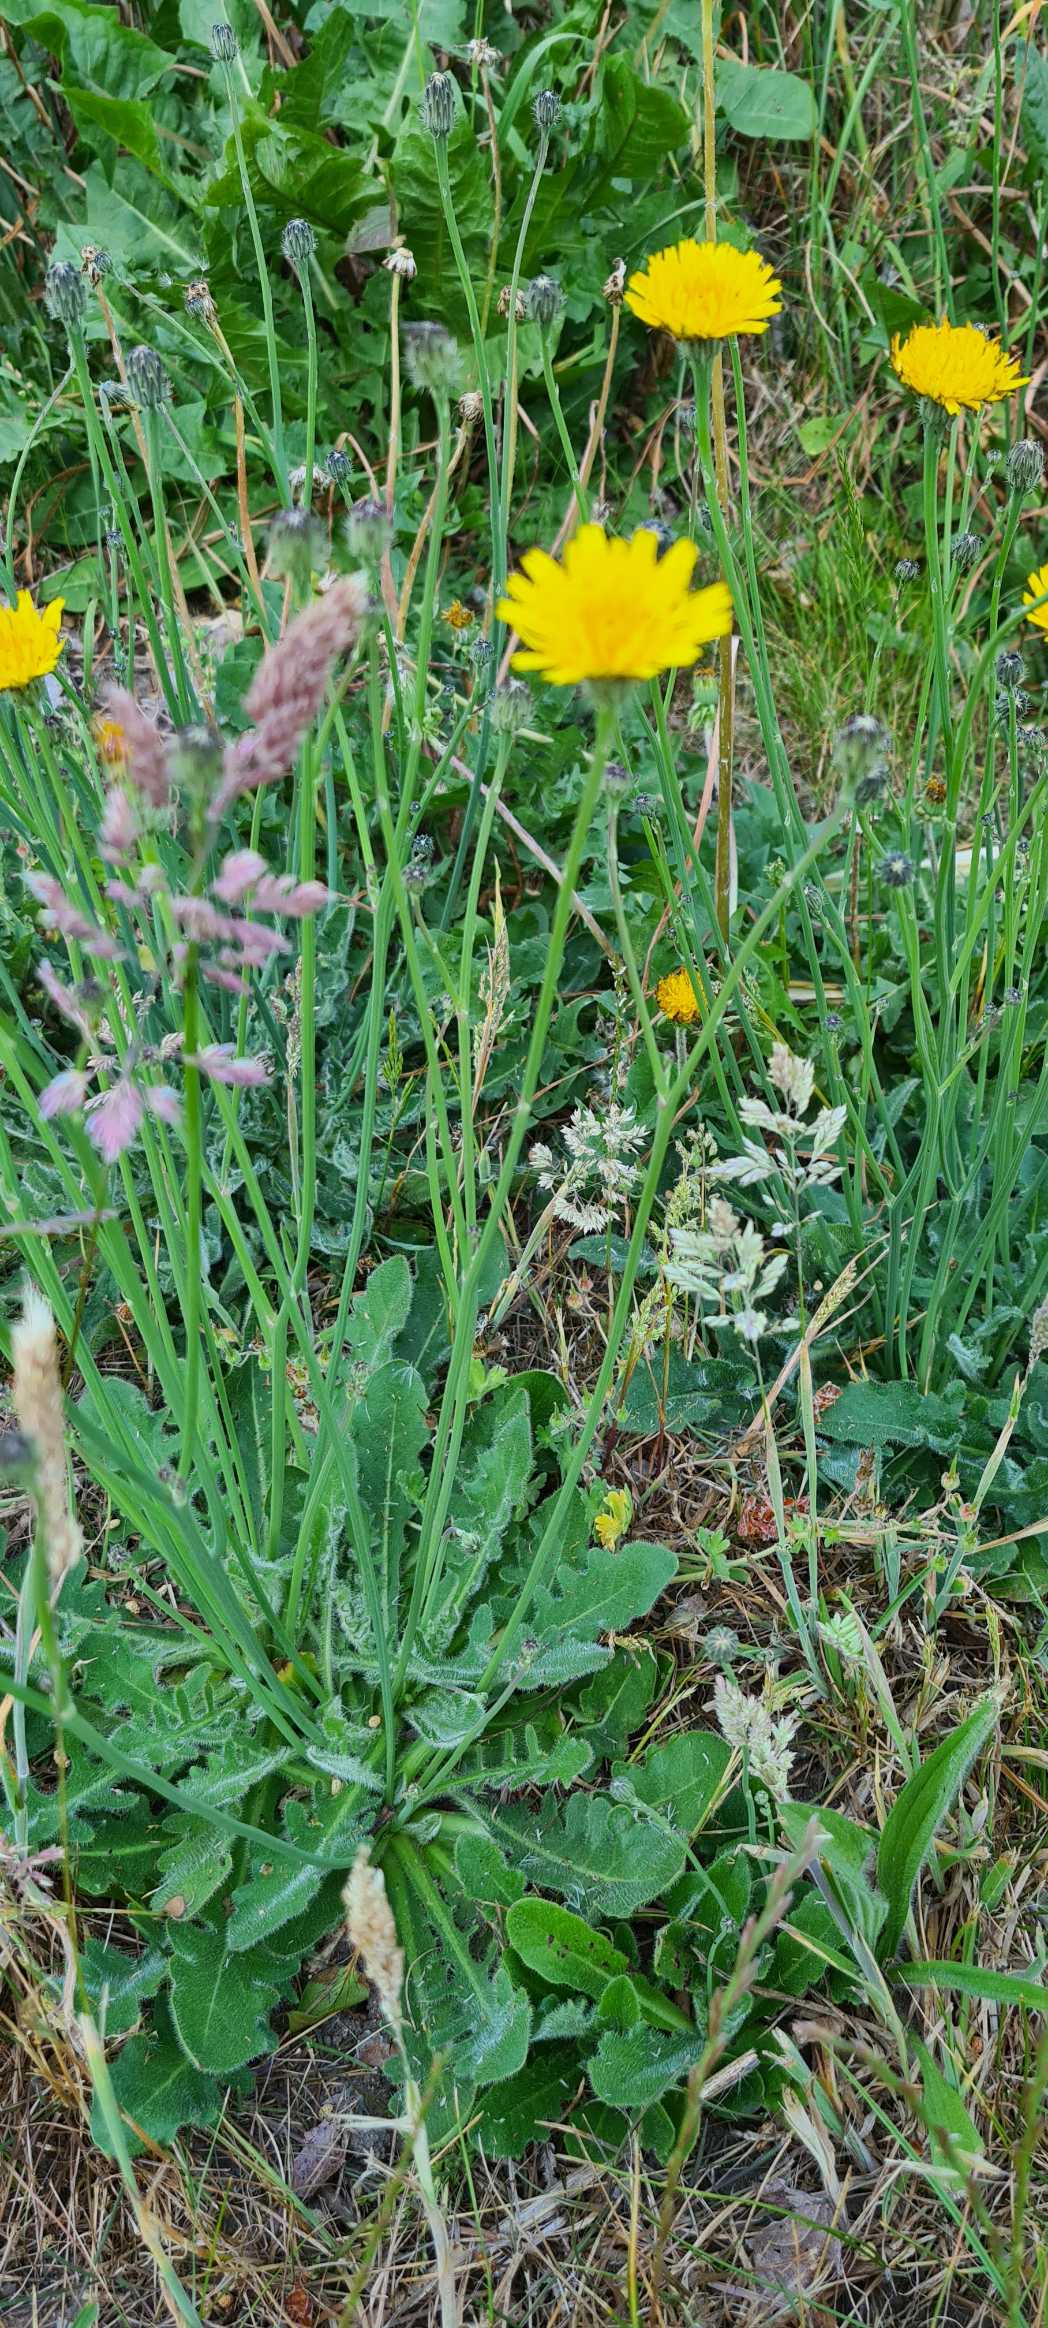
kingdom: Plantae
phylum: Tracheophyta
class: Magnoliopsida
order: Asterales
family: Asteraceae
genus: Hypochaeris
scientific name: Hypochaeris radicata
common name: Almindelig kongepen
